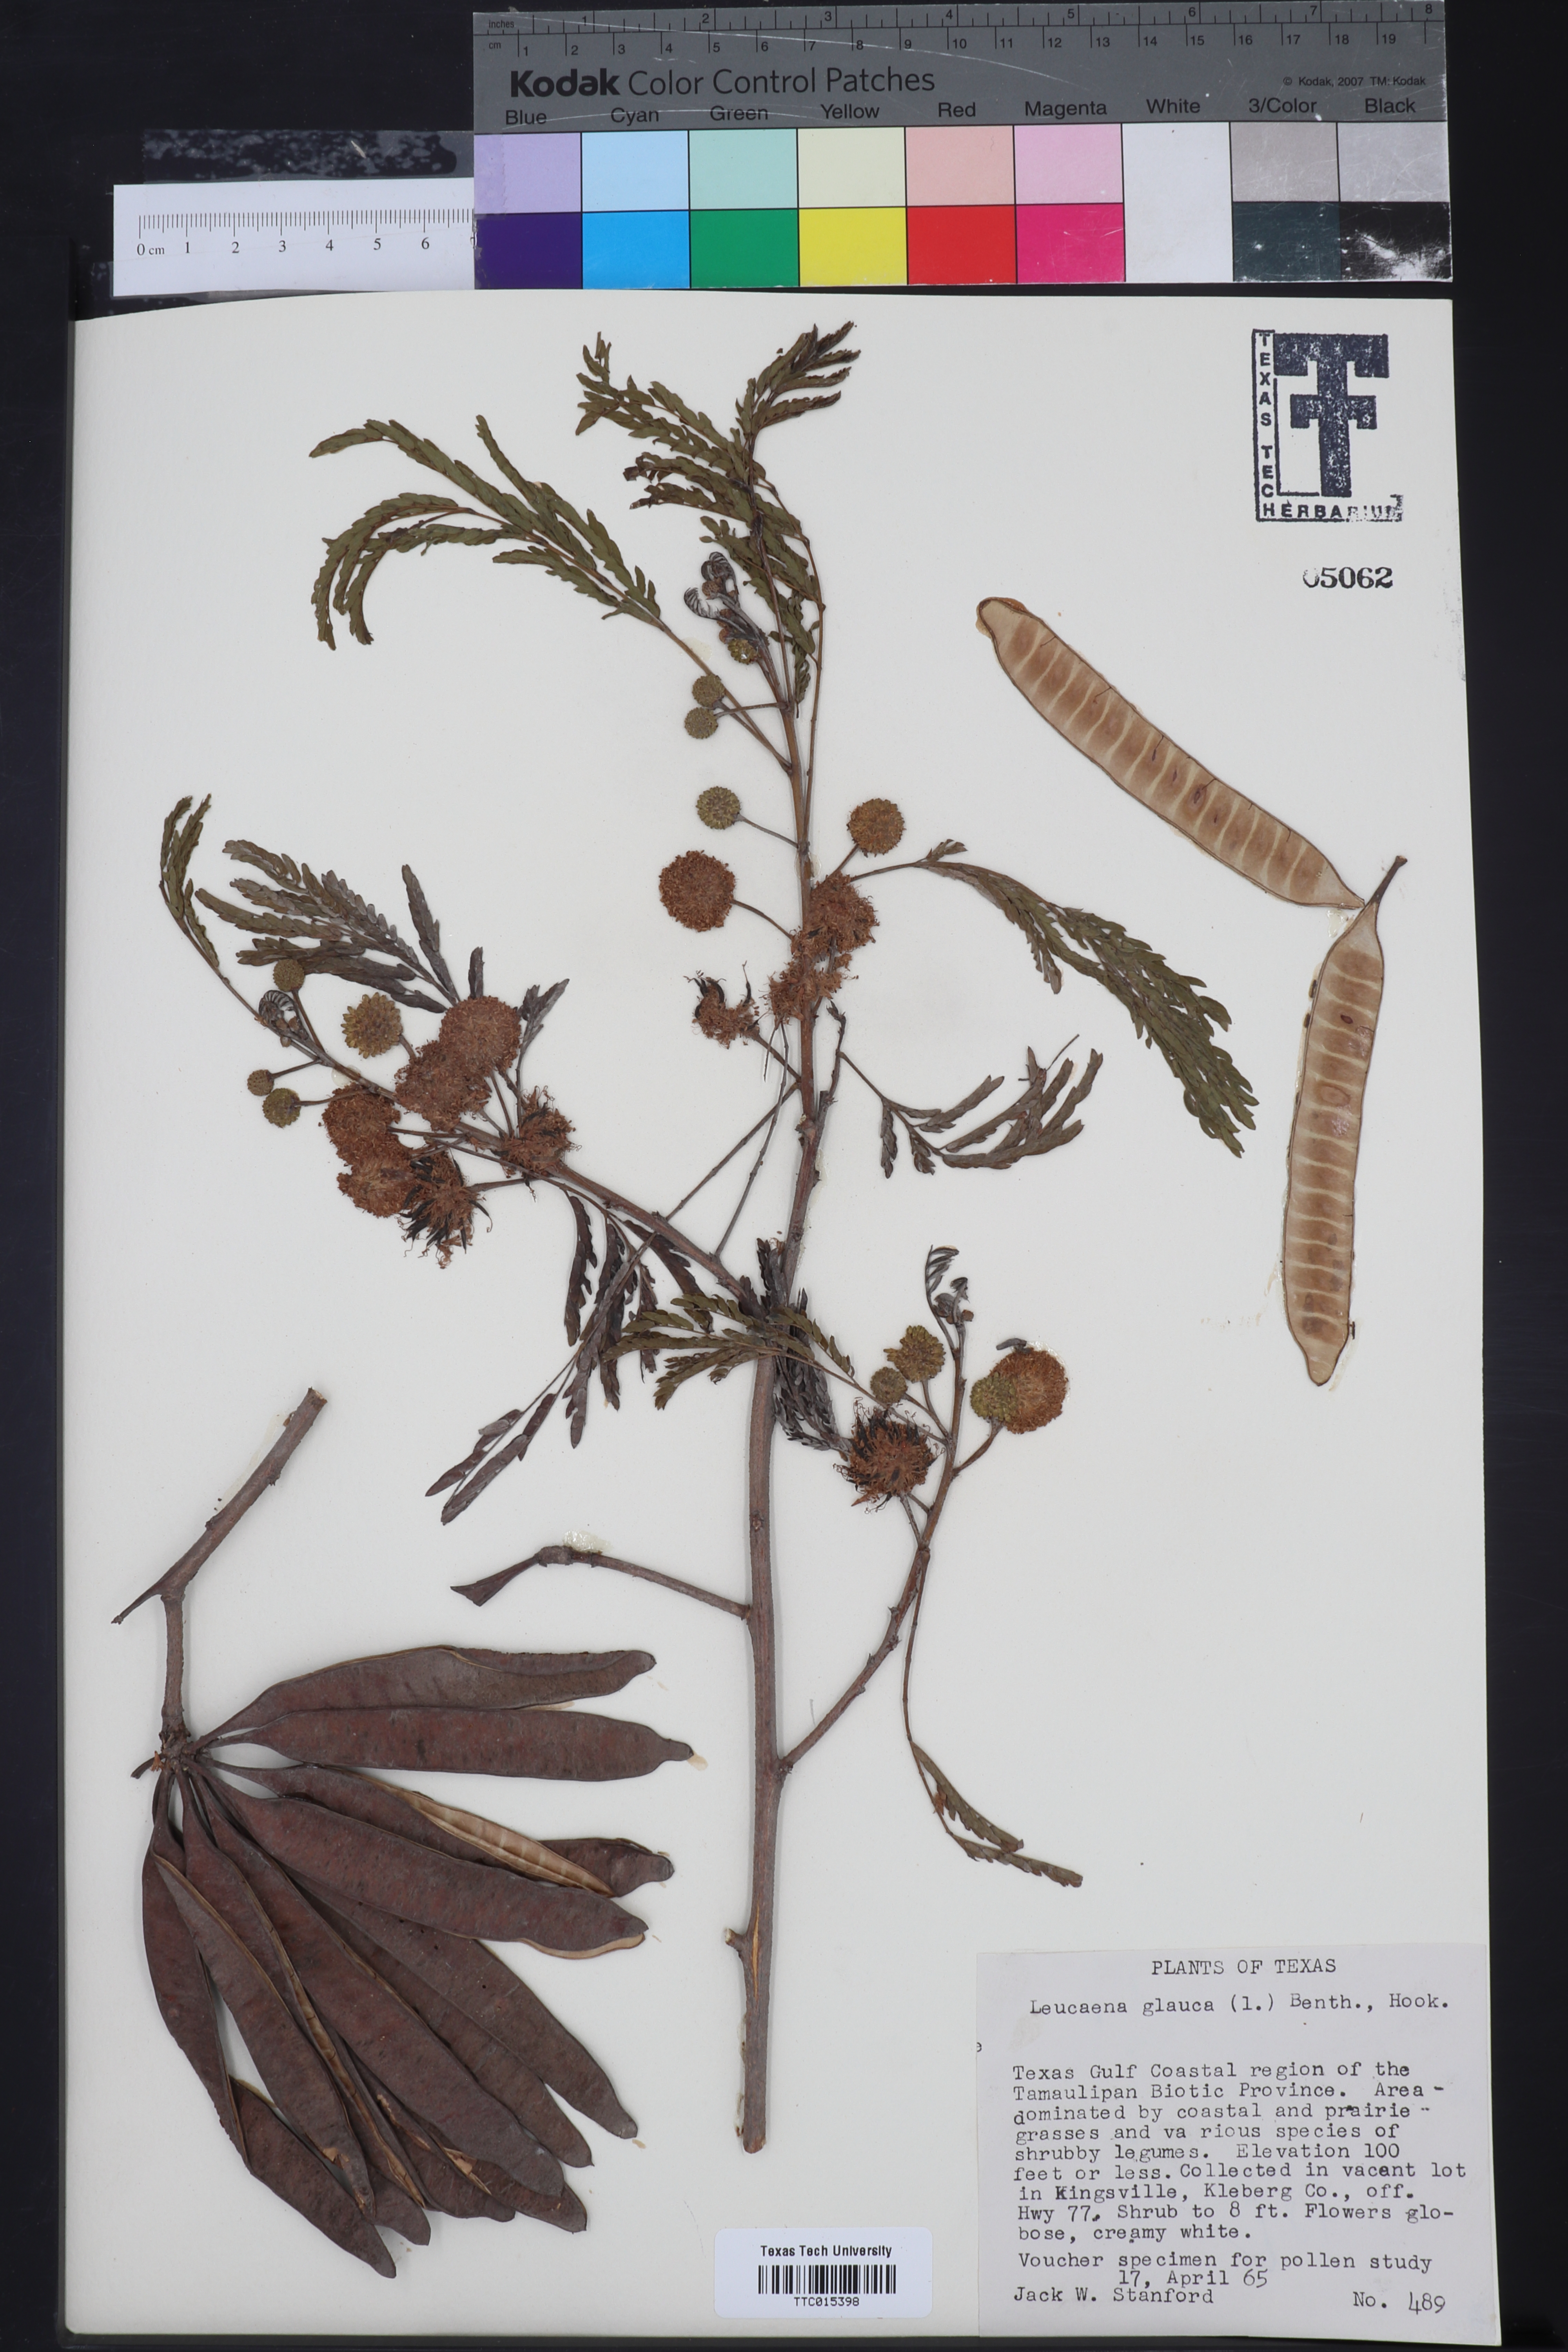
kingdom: Plantae
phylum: Tracheophyta
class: Magnoliopsida
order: Fabales
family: Fabaceae
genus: Acaciella
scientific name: Acaciella glauca
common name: Redwood
